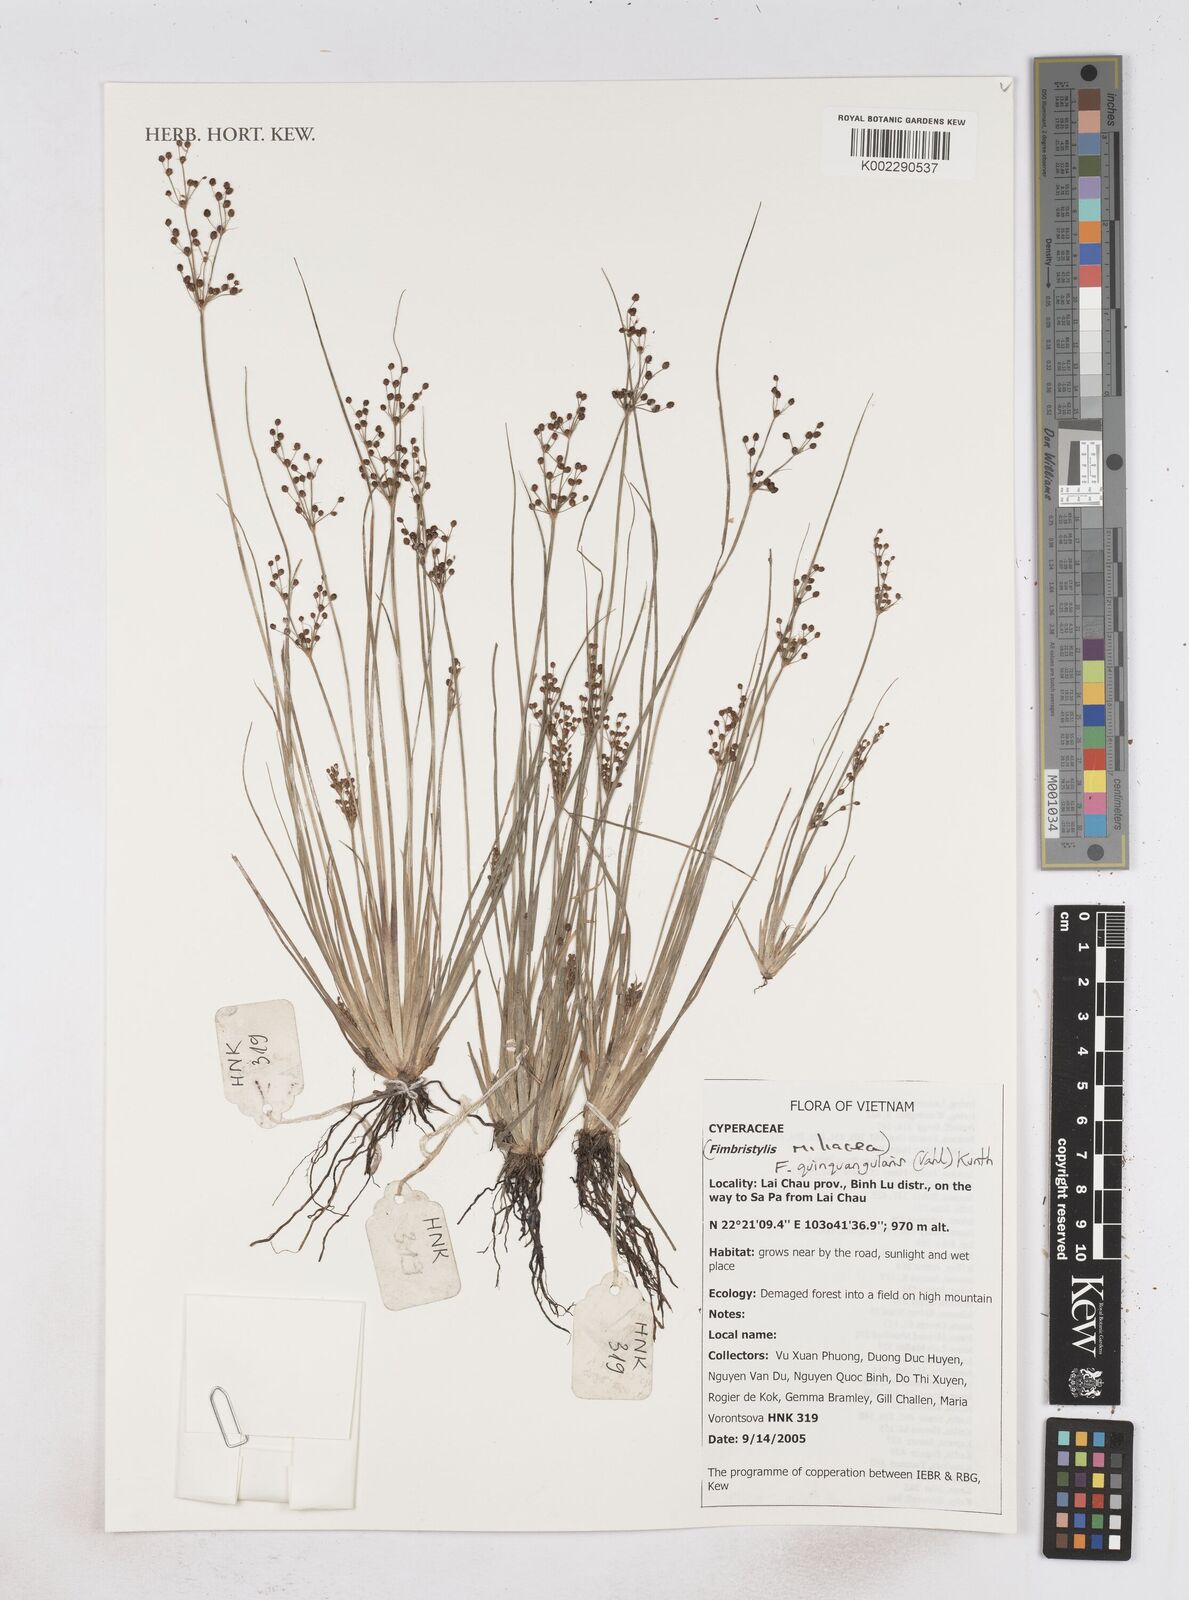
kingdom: Plantae
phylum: Tracheophyta
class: Liliopsida
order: Poales
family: Cyperaceae
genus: Fimbristylis
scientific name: Fimbristylis prabatensis
